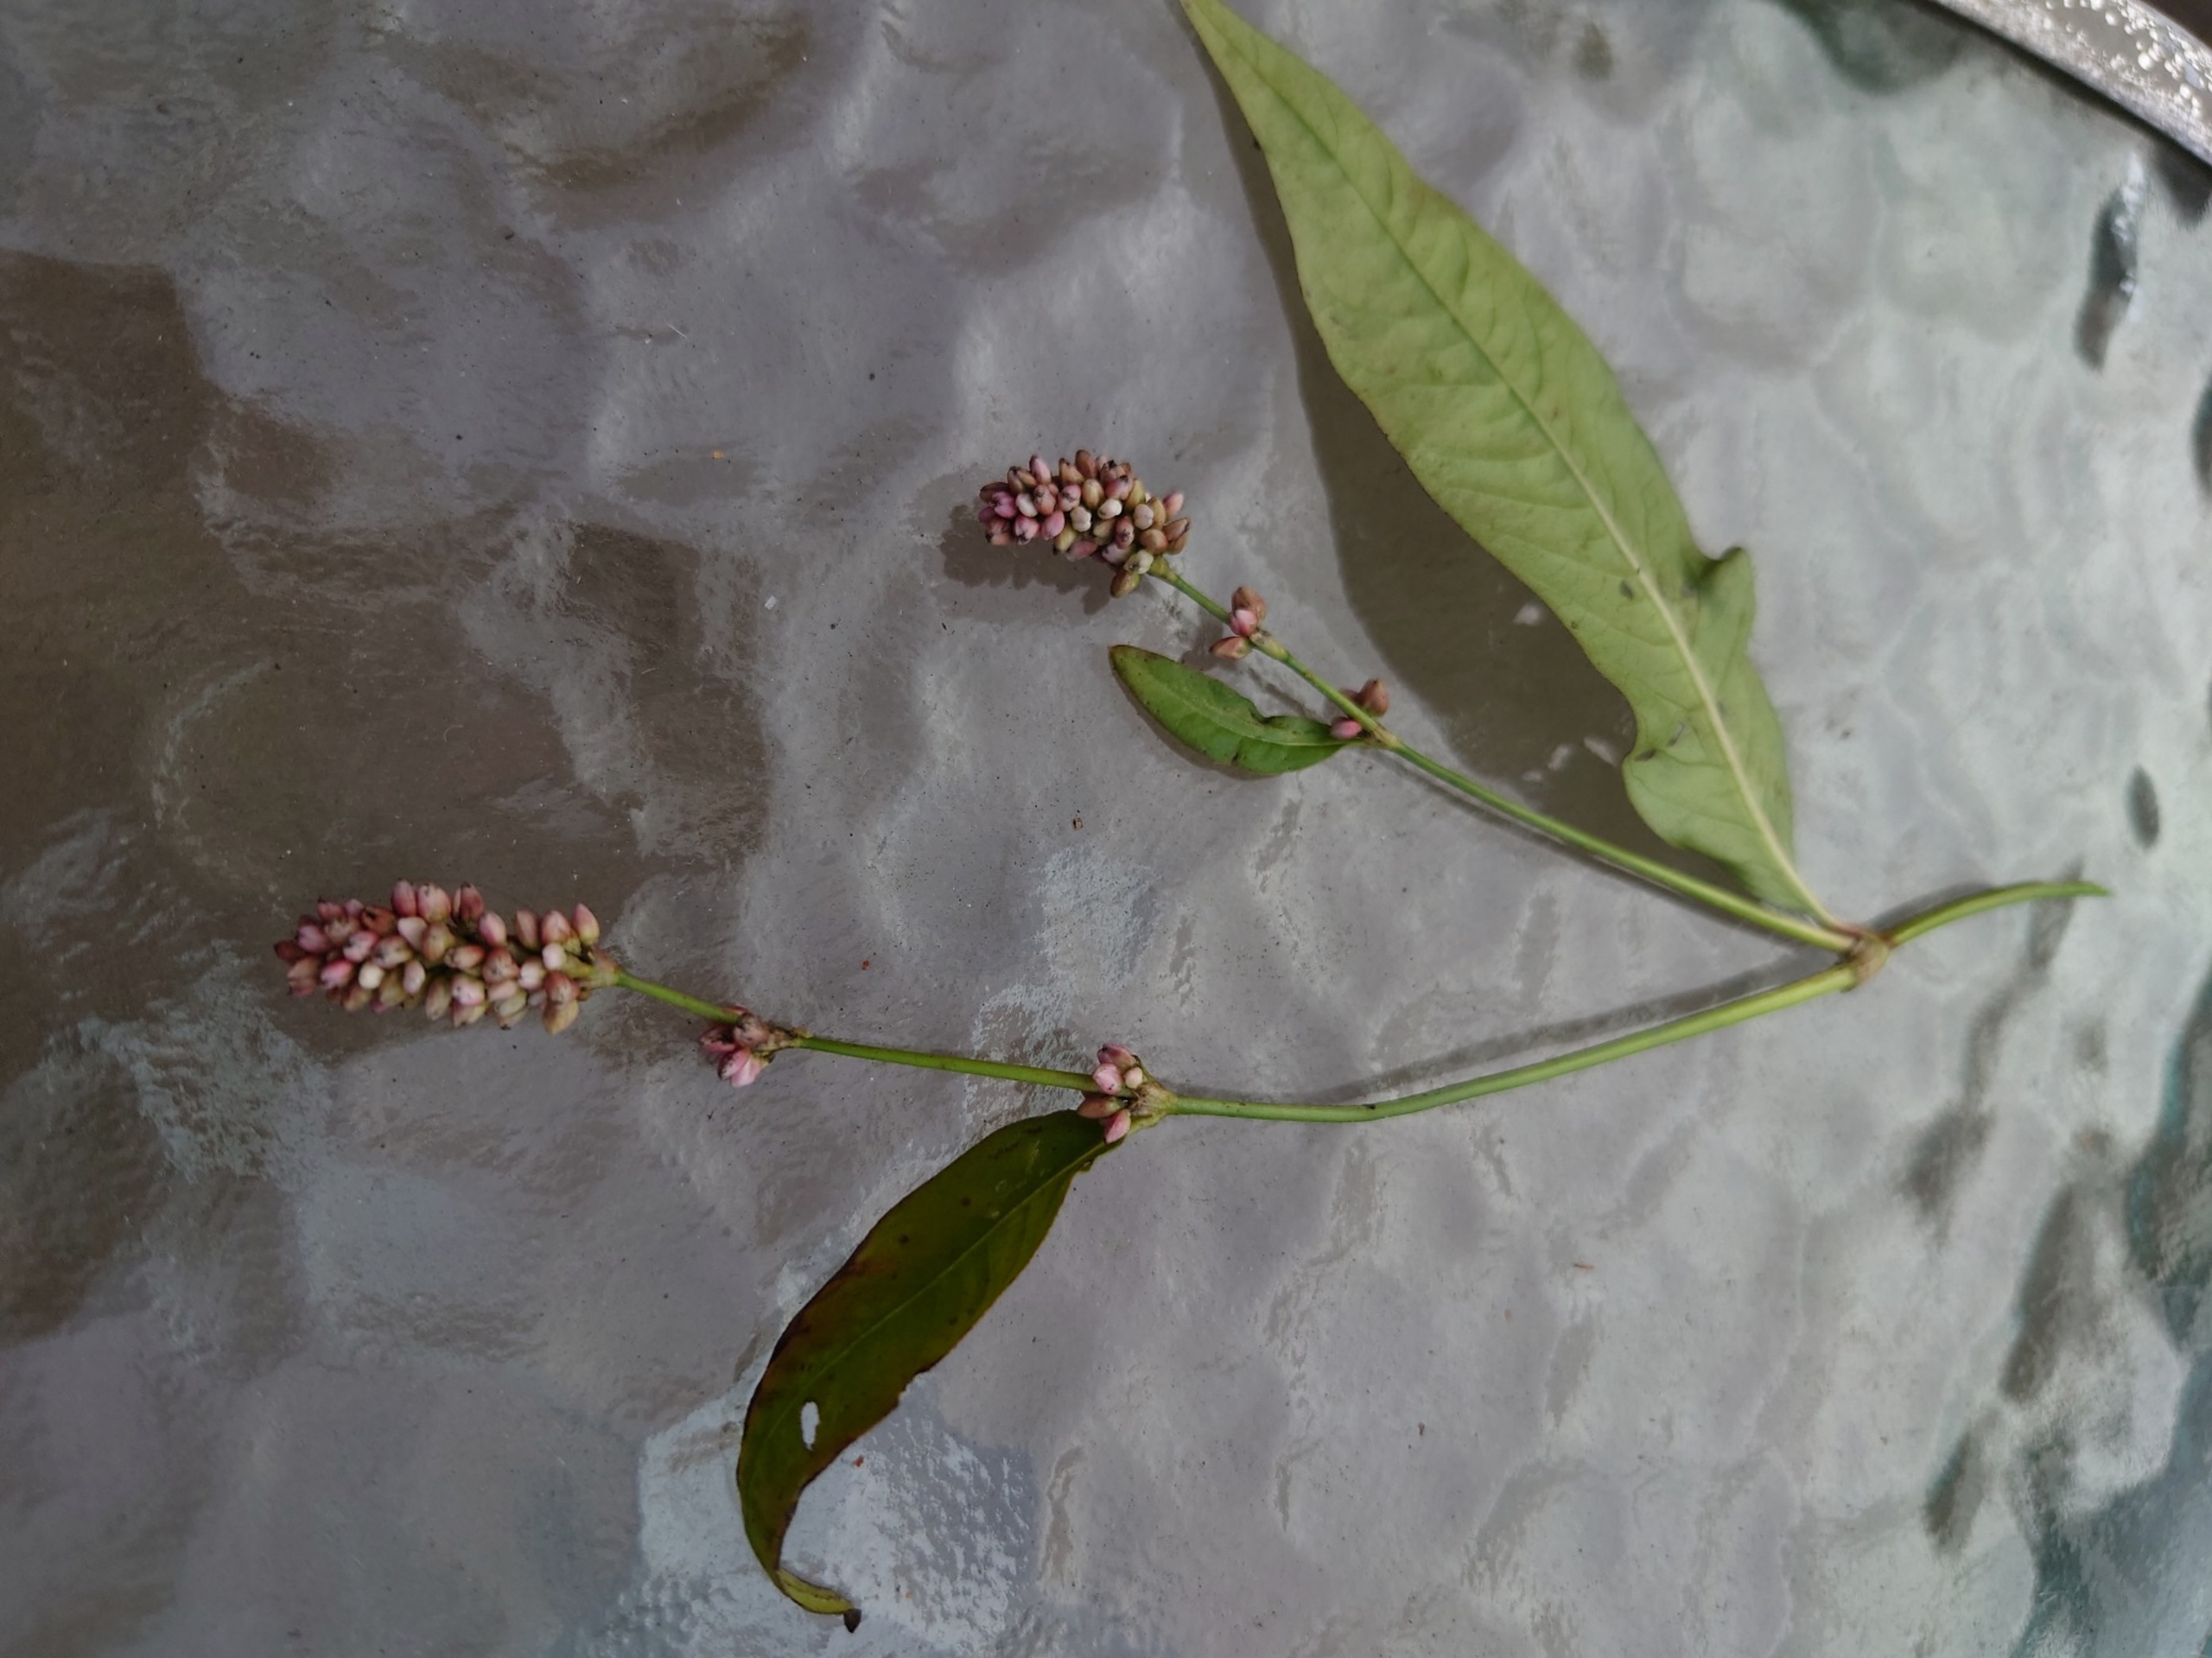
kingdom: Plantae
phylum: Tracheophyta
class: Magnoliopsida
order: Caryophyllales
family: Polygonaceae
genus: Persicaria
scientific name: Persicaria lapathifolia
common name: Bleg pileurt
